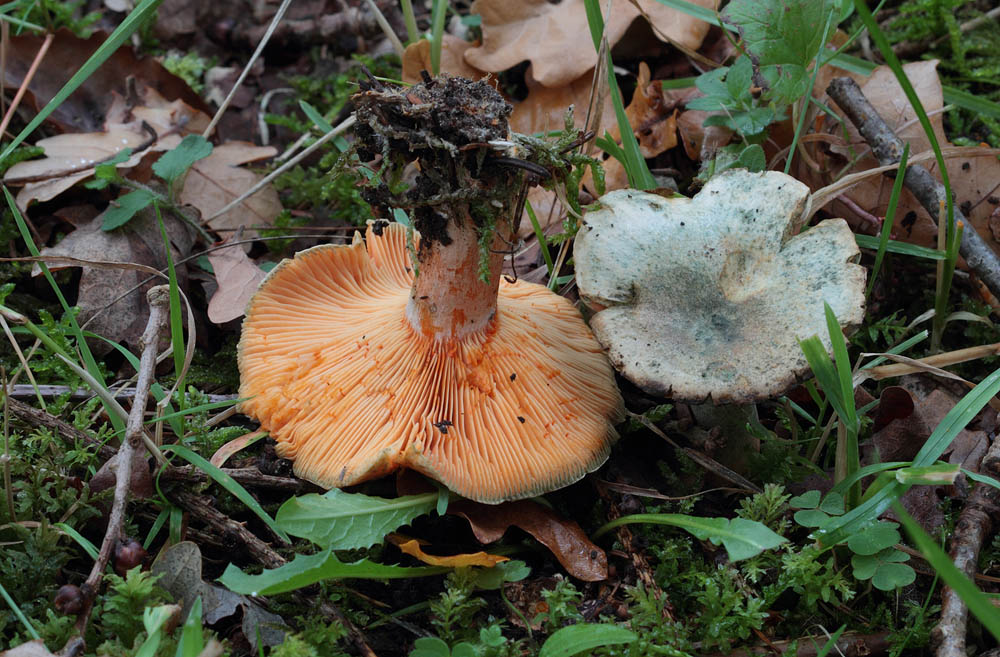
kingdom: Fungi
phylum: Basidiomycota
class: Agaricomycetes
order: Russulales
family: Russulaceae
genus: Lactarius
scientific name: Lactarius deterrimus
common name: gran-mælkehat
